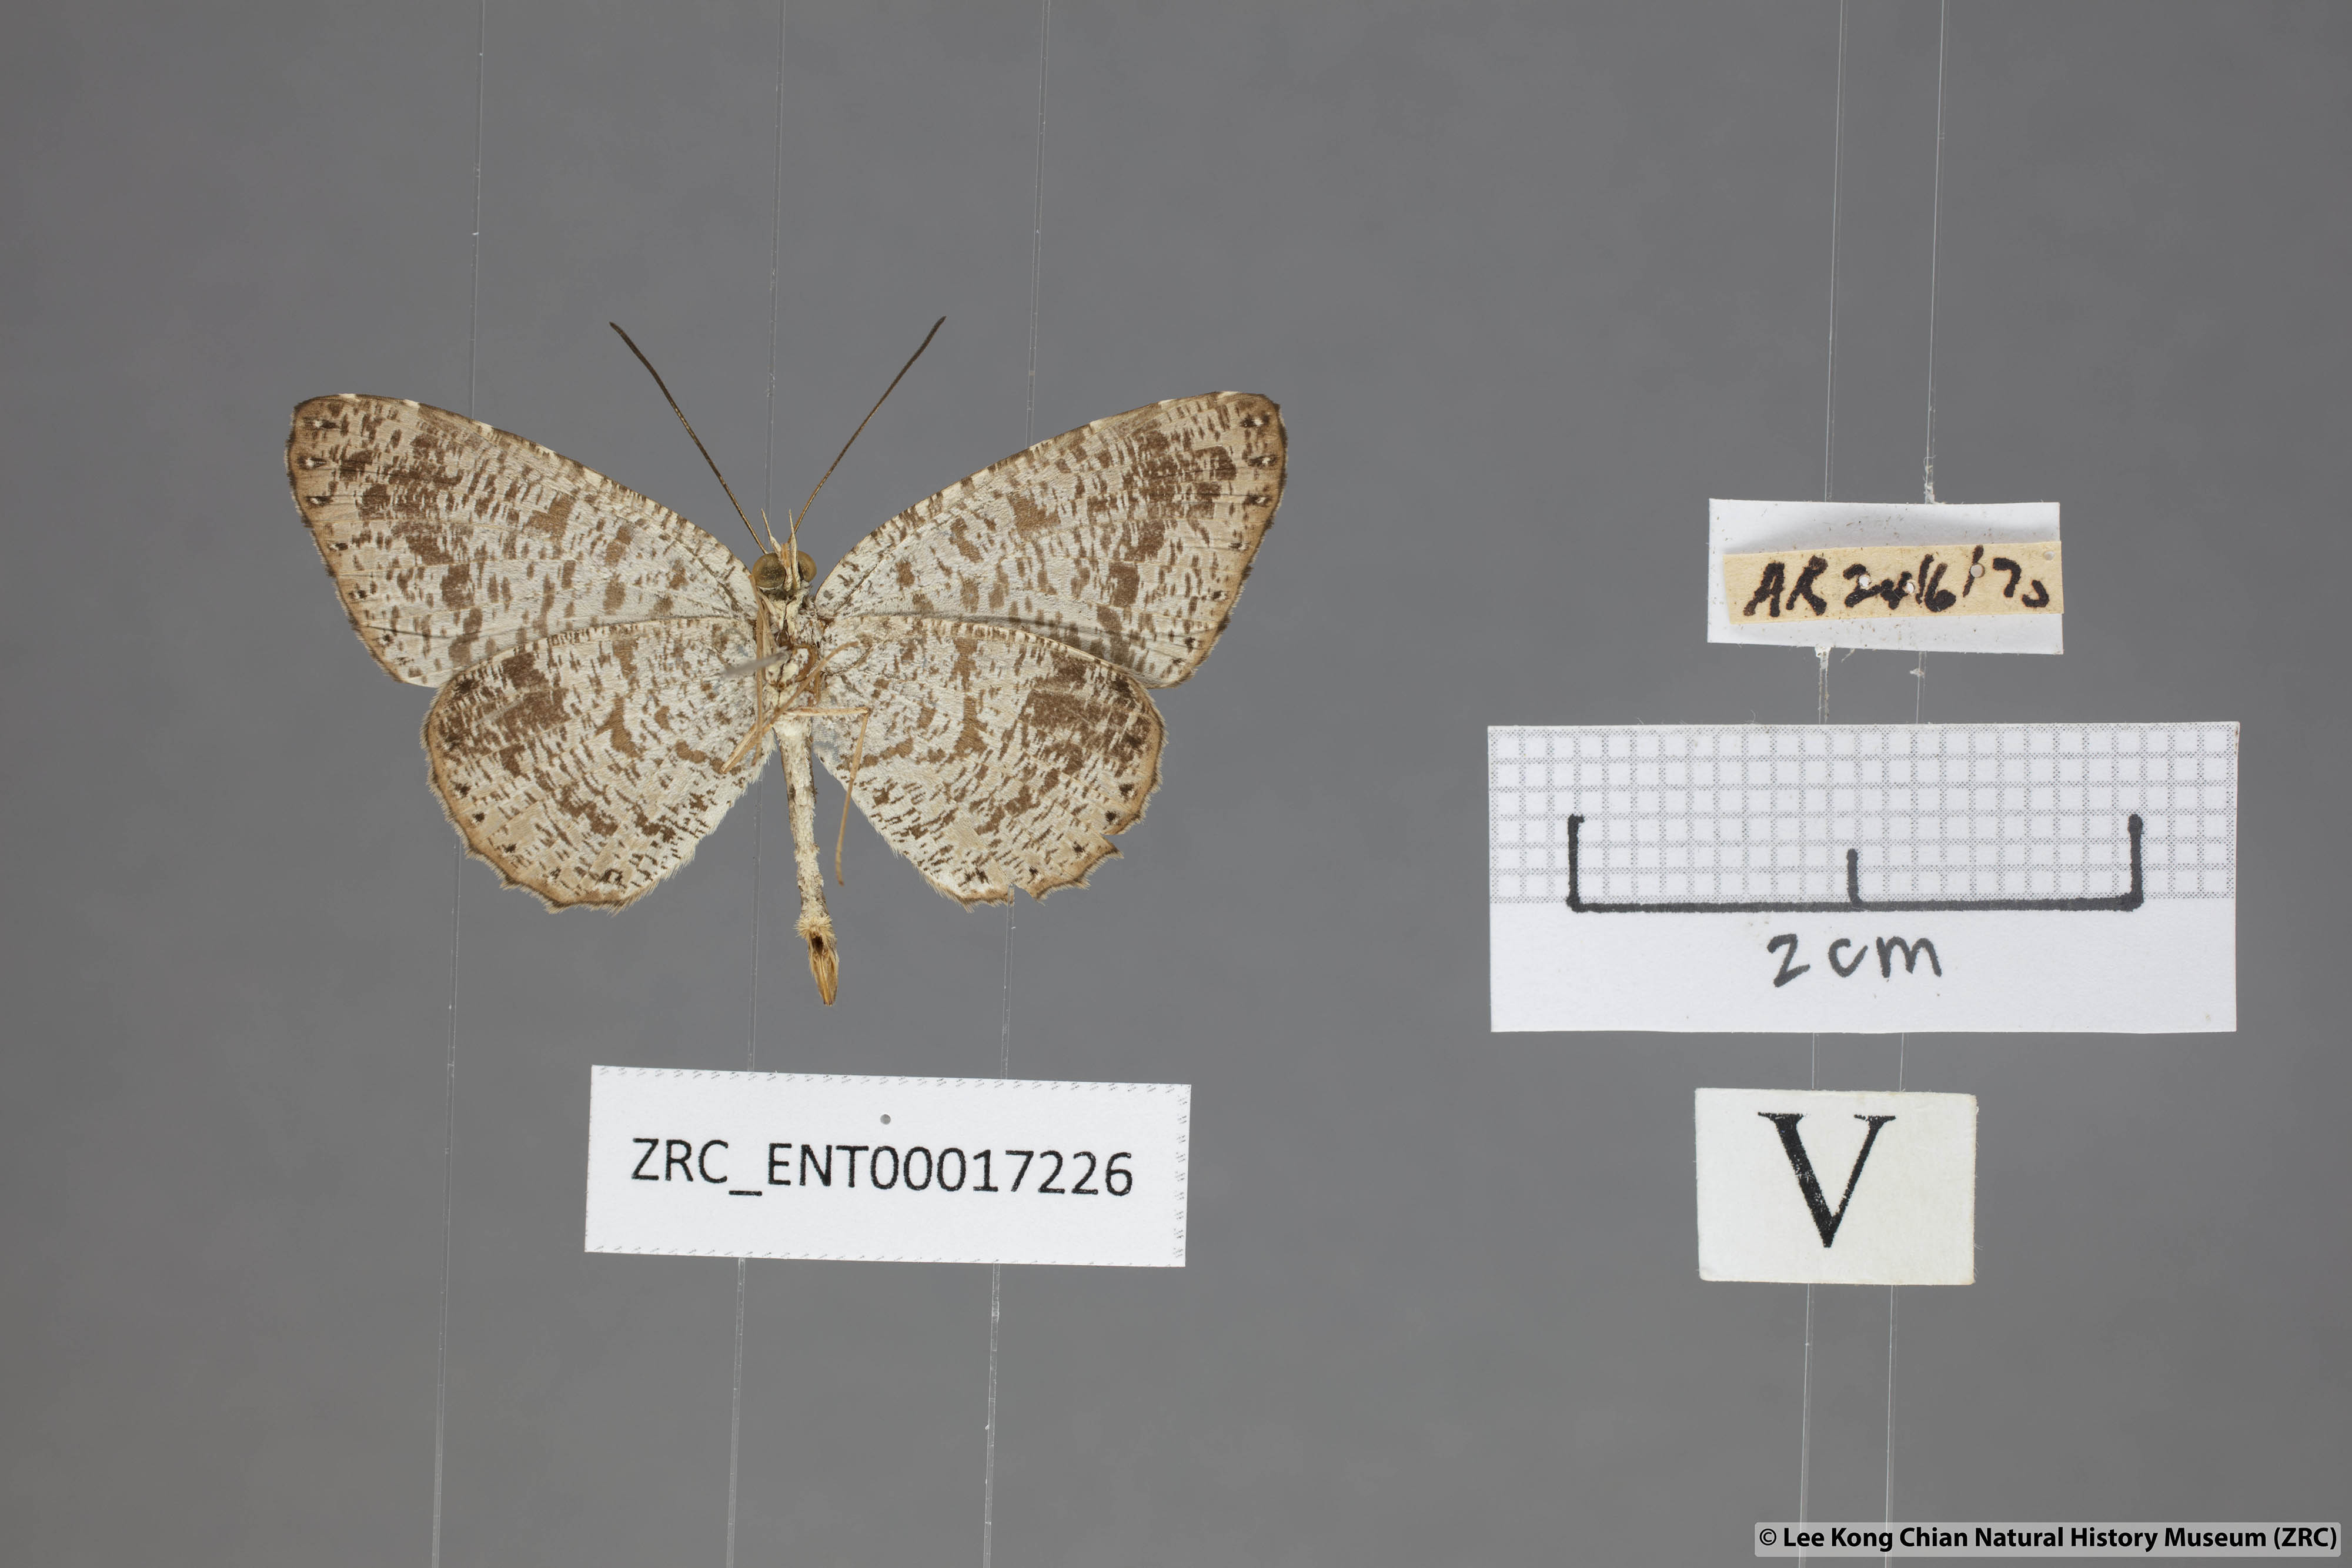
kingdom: Animalia
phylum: Arthropoda
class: Insecta
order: Lepidoptera
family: Lycaenidae
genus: Allotinus
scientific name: Allotinus fabius
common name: Angled darkie
